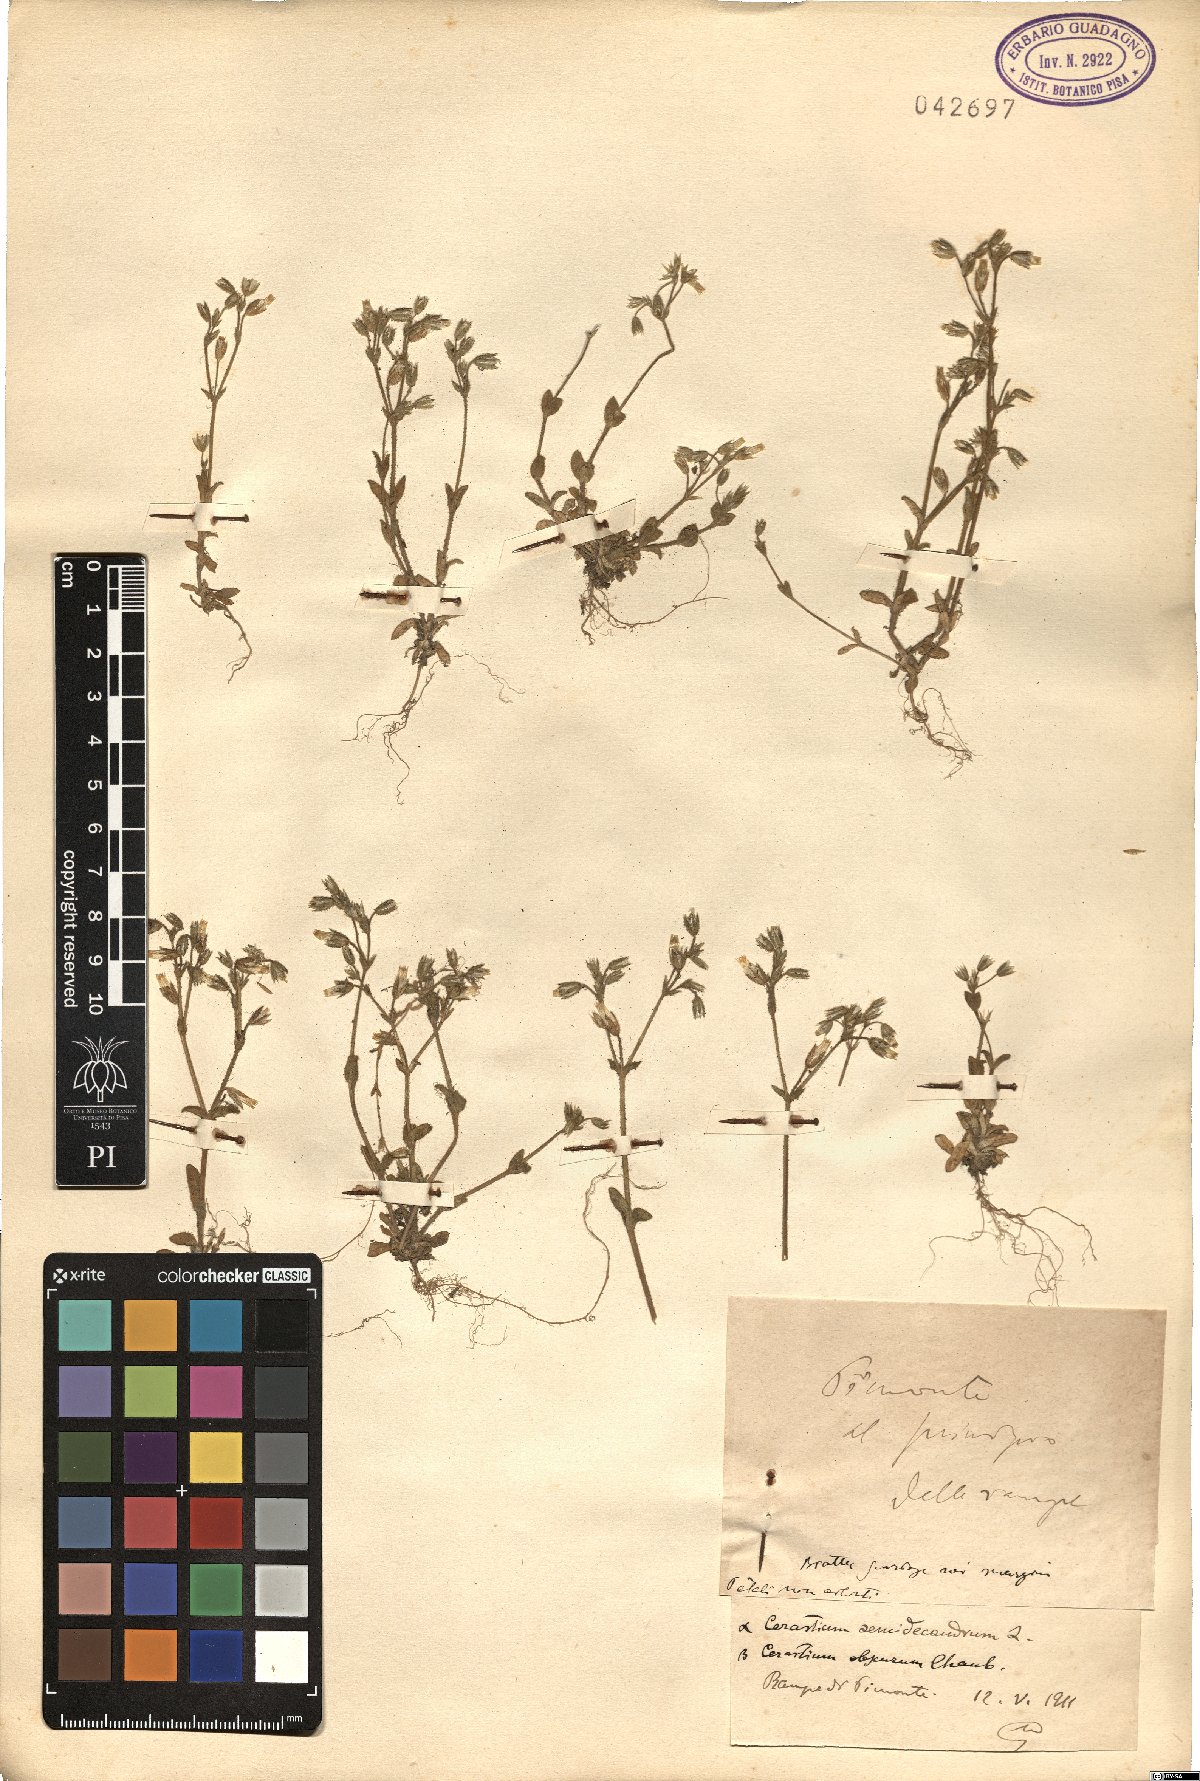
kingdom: Plantae
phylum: Tracheophyta
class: Magnoliopsida
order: Caryophyllales
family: Caryophyllaceae
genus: Cerastium
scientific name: Cerastium semidecandrum
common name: Little mouse-ear
